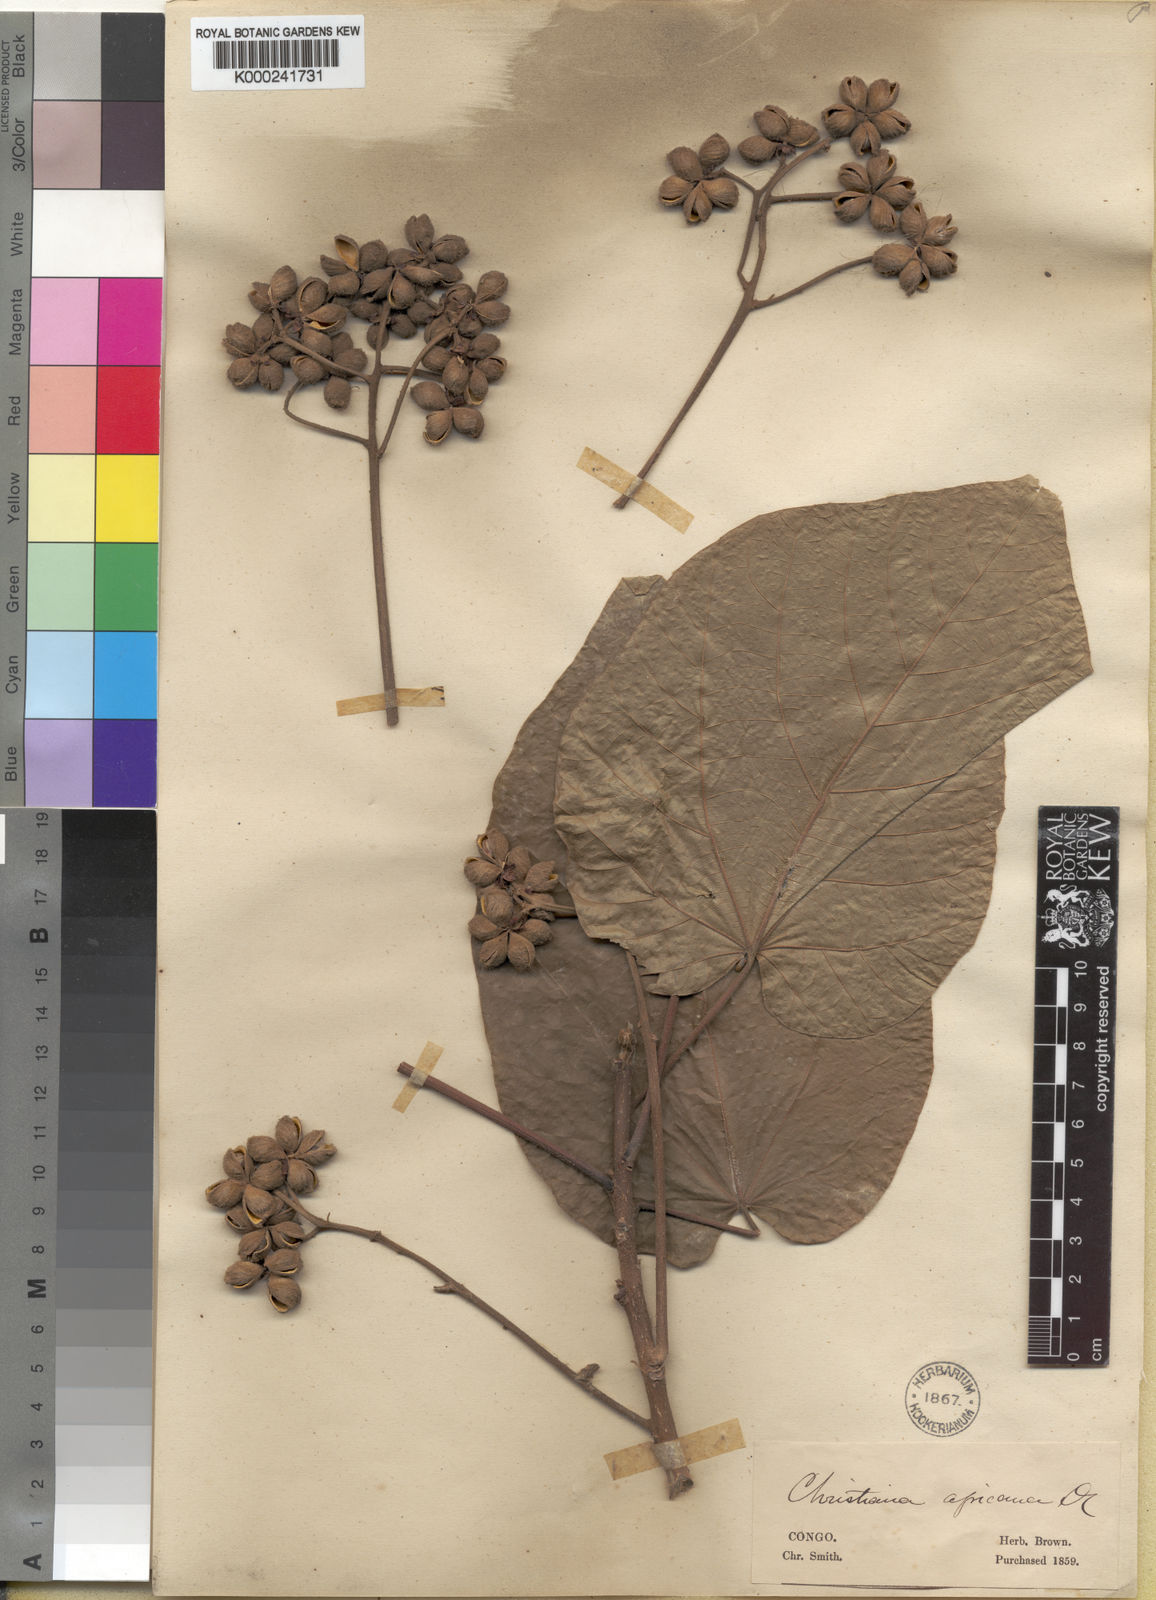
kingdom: Plantae
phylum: Tracheophyta
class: Magnoliopsida
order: Malvales
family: Malvaceae
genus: Christiana
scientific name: Christiana africana
